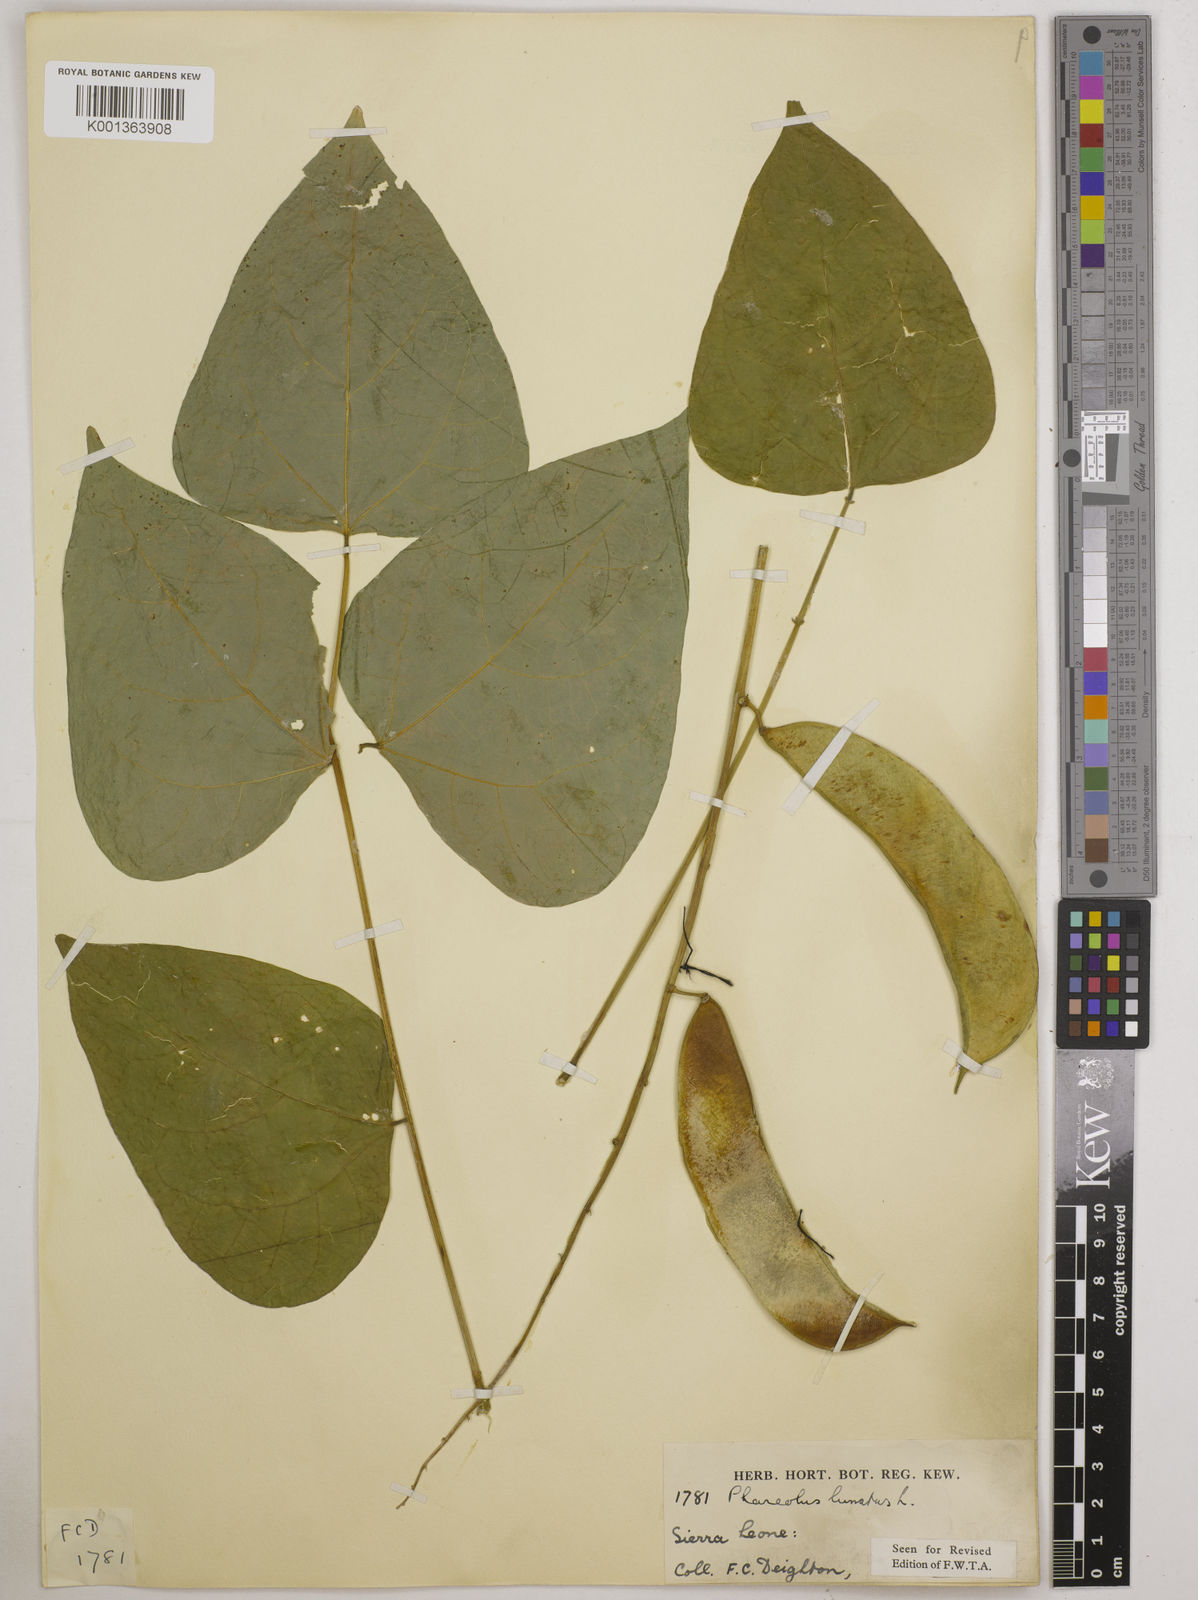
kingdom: Plantae
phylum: Tracheophyta
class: Magnoliopsida
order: Fabales
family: Fabaceae
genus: Phaseolus
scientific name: Phaseolus lunatus
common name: Sieva bean
